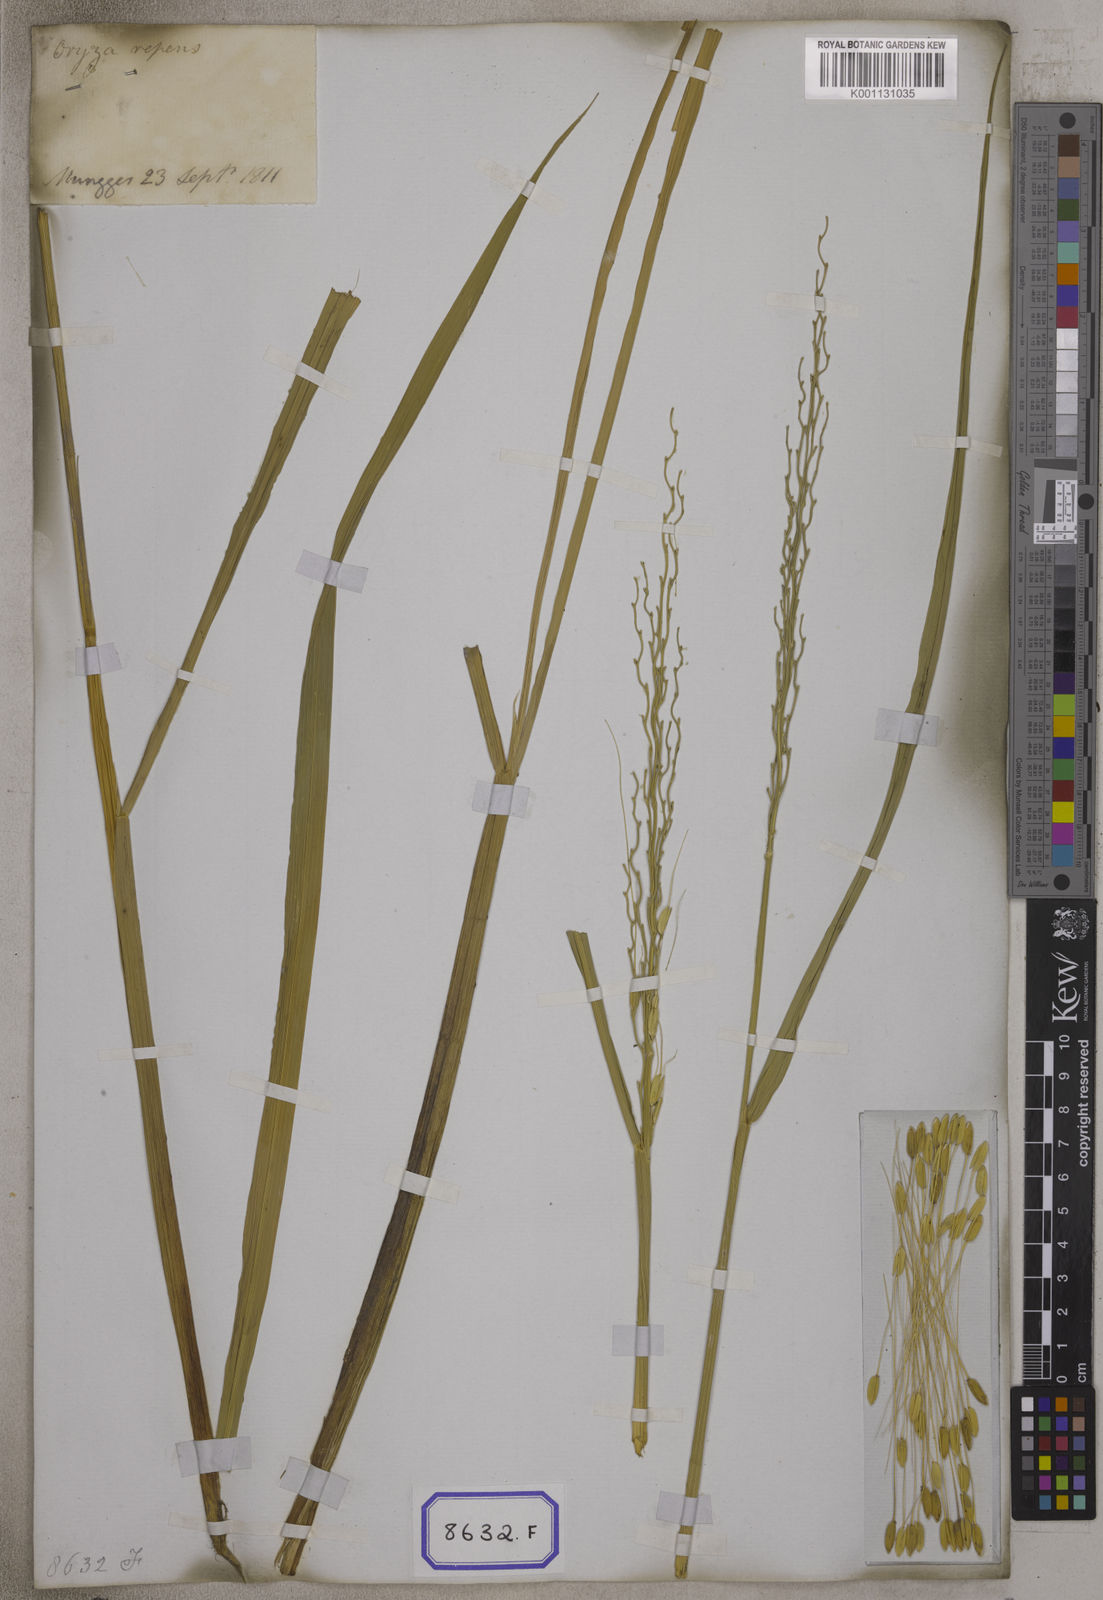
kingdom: Plantae
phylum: Tracheophyta
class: Liliopsida
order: Poales
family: Poaceae
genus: Oryza
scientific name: Oryza sativa
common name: Rice
